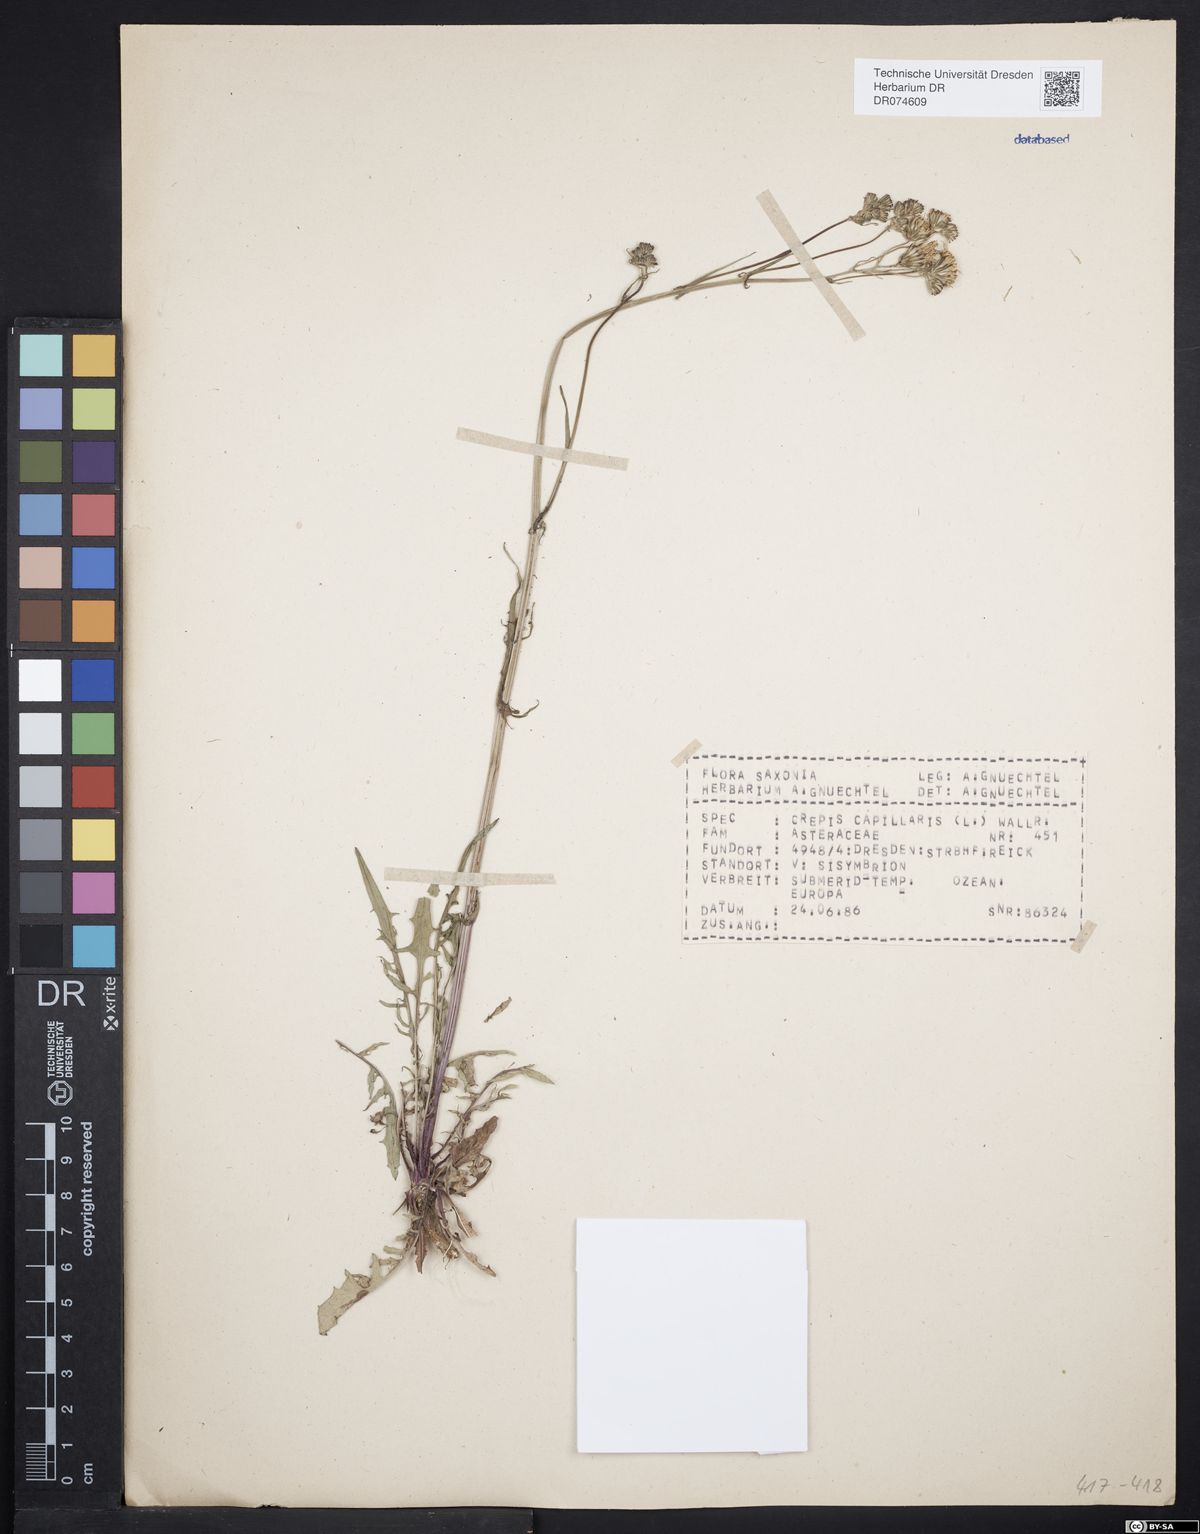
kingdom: Plantae
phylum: Tracheophyta
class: Magnoliopsida
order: Asterales
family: Asteraceae
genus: Crepis
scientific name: Crepis capillaris
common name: Smooth hawksbeard
